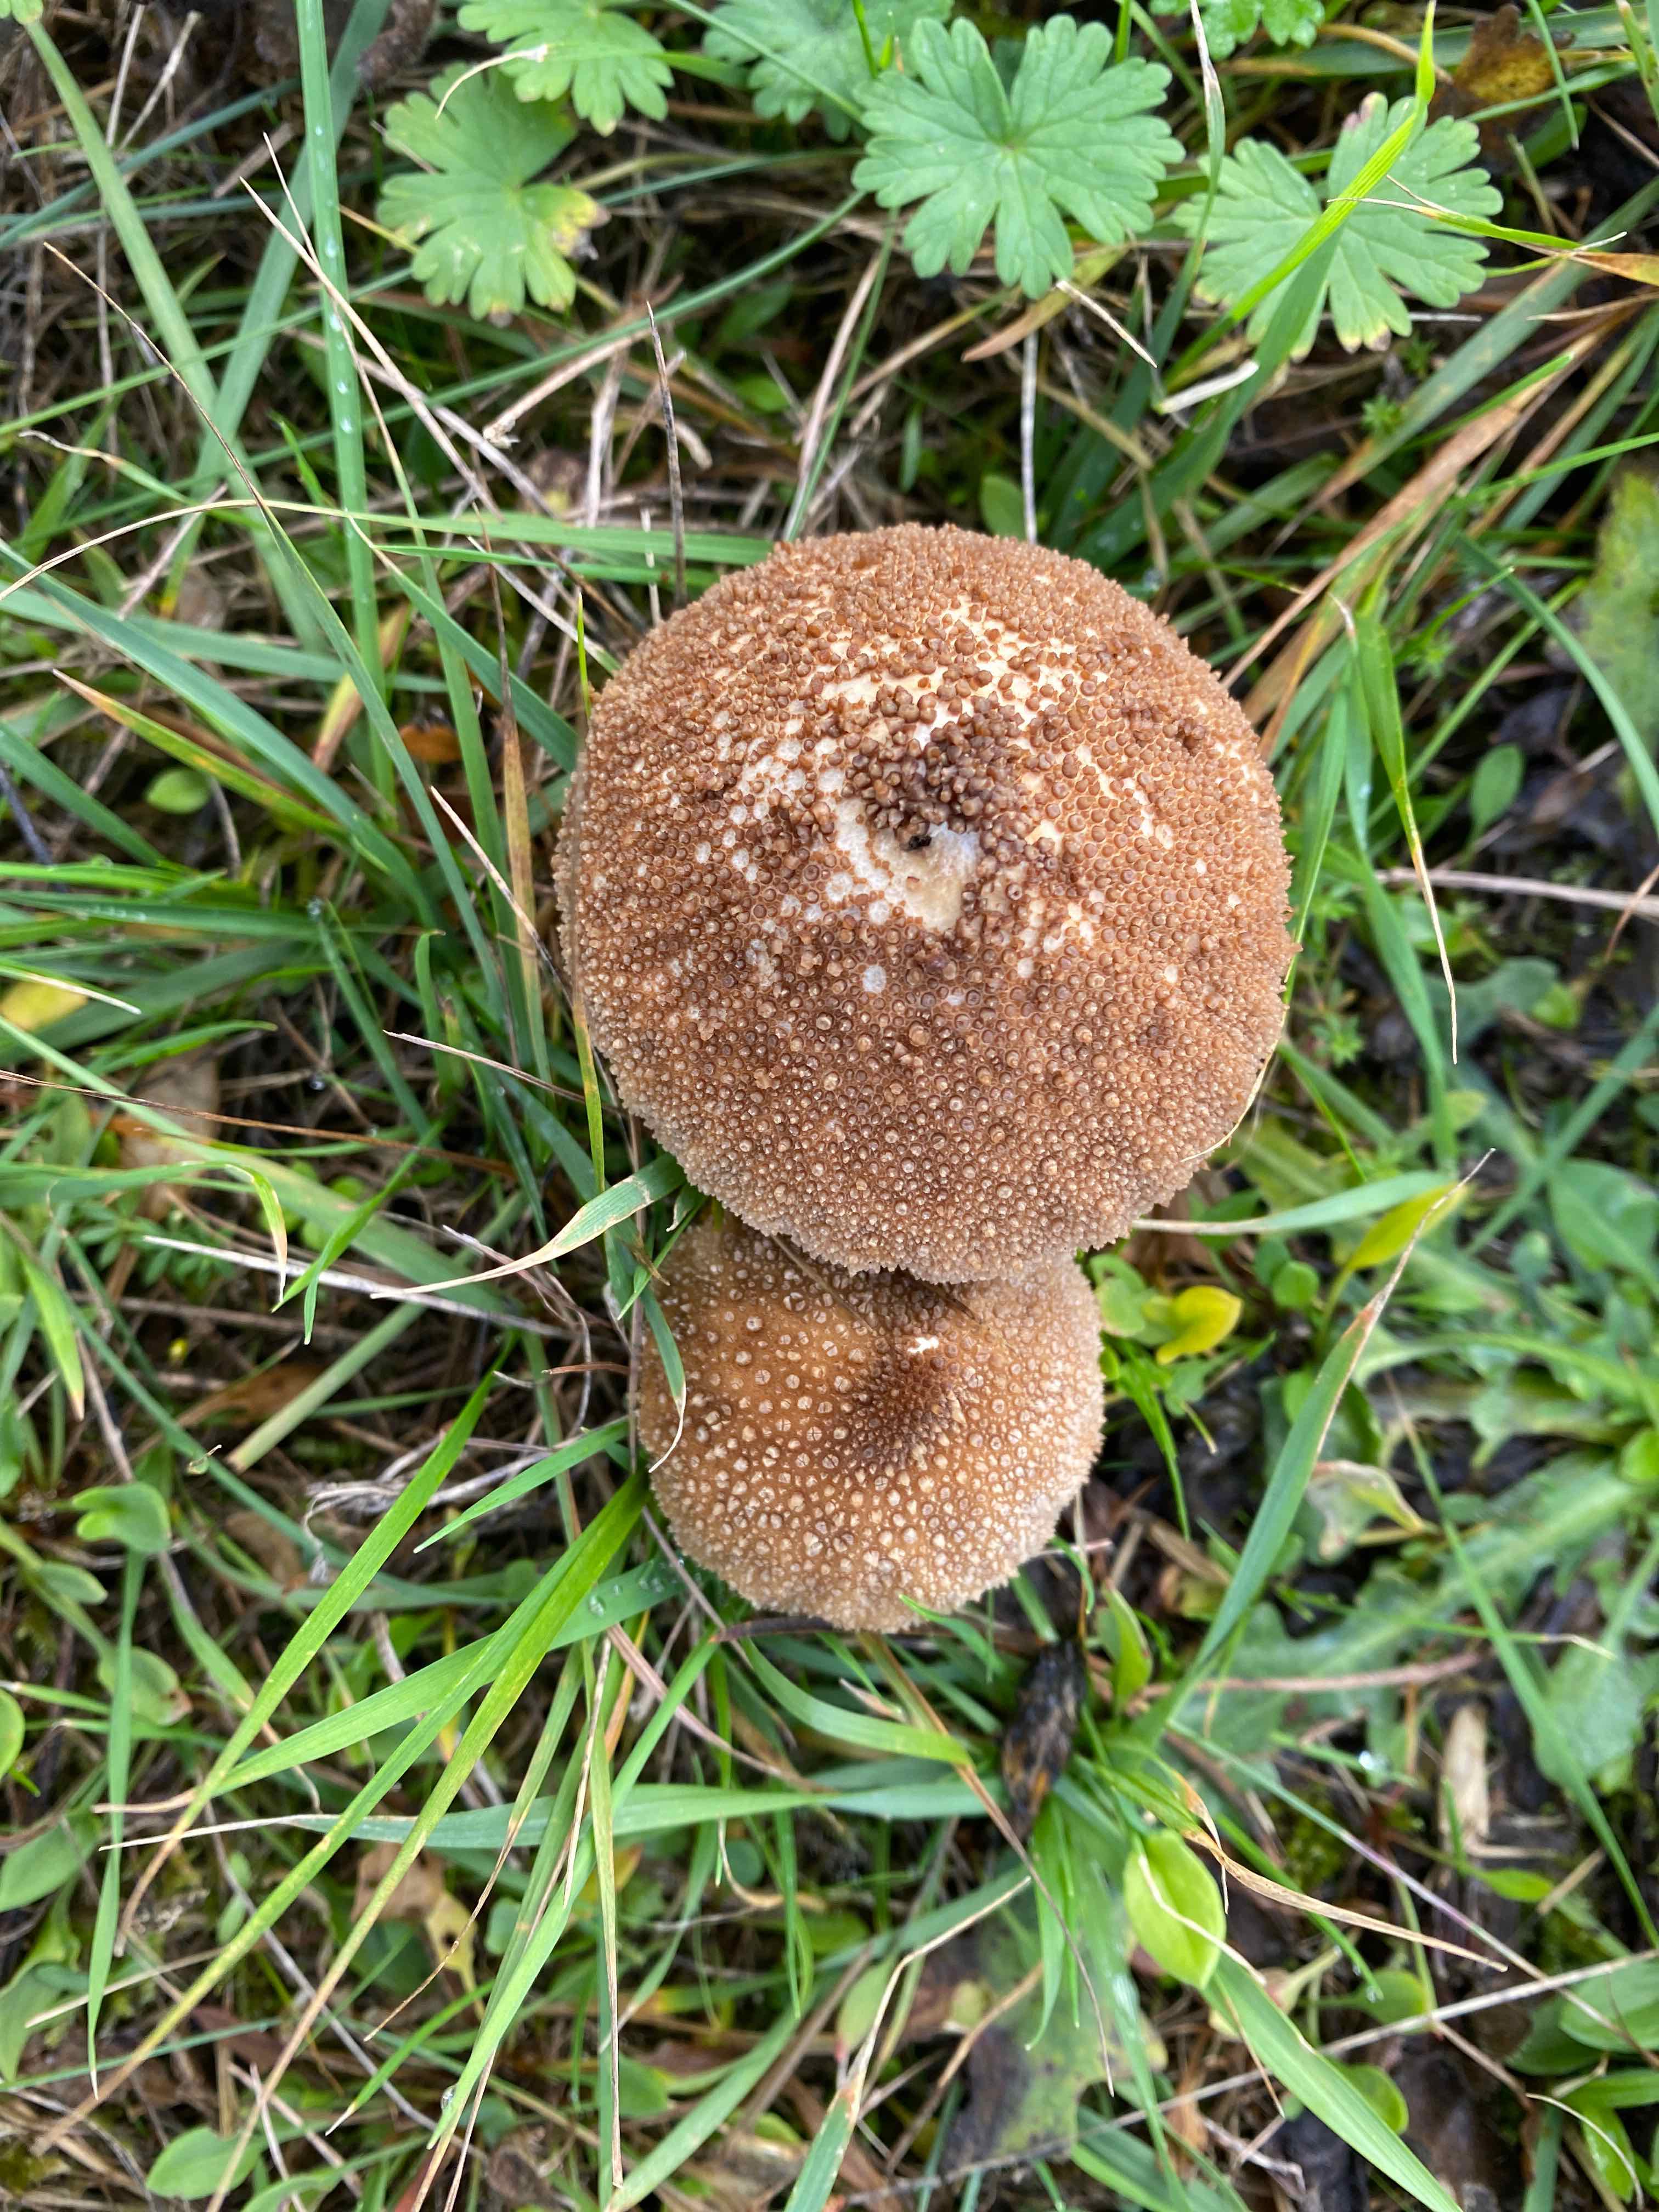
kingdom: Fungi
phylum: Basidiomycota
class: Agaricomycetes
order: Agaricales
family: Lycoperdaceae
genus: Lycoperdon
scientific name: Lycoperdon nigrescens
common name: sortagtig støvbold
